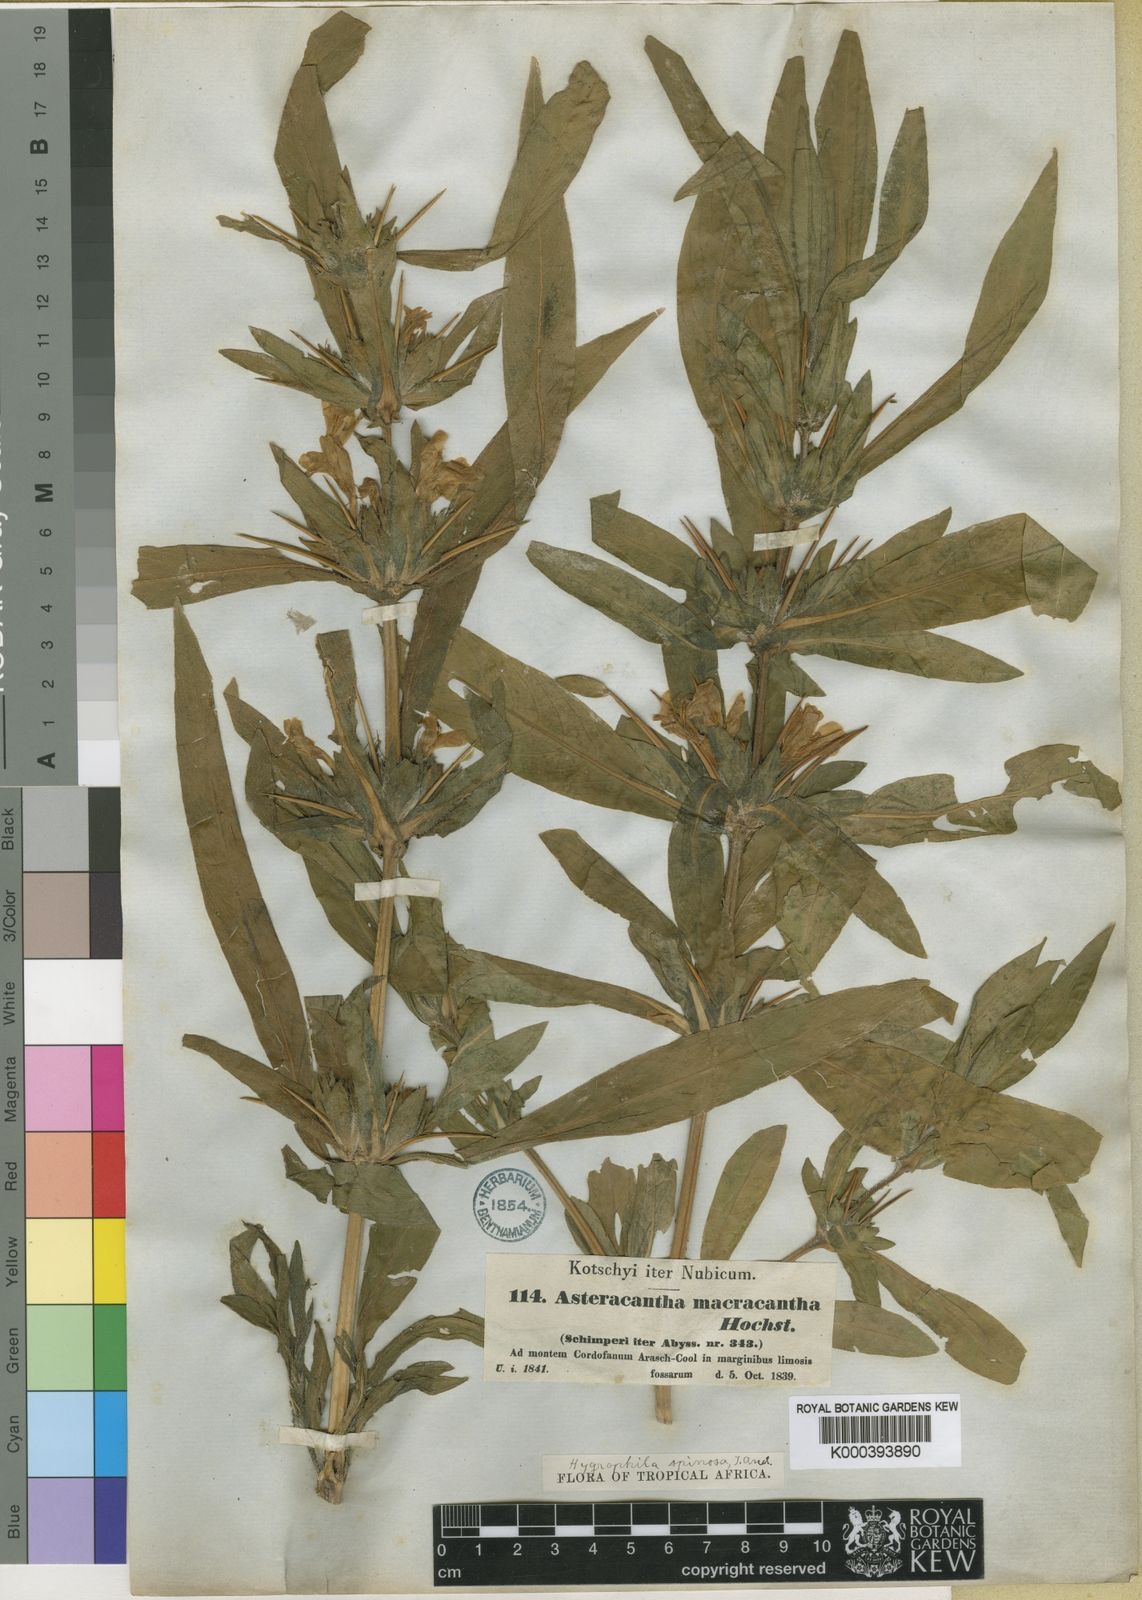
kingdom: Plantae
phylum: Tracheophyta
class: Magnoliopsida
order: Lamiales
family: Acanthaceae
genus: Hygrophila
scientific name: Hygrophila auriculata
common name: Hygrophila
